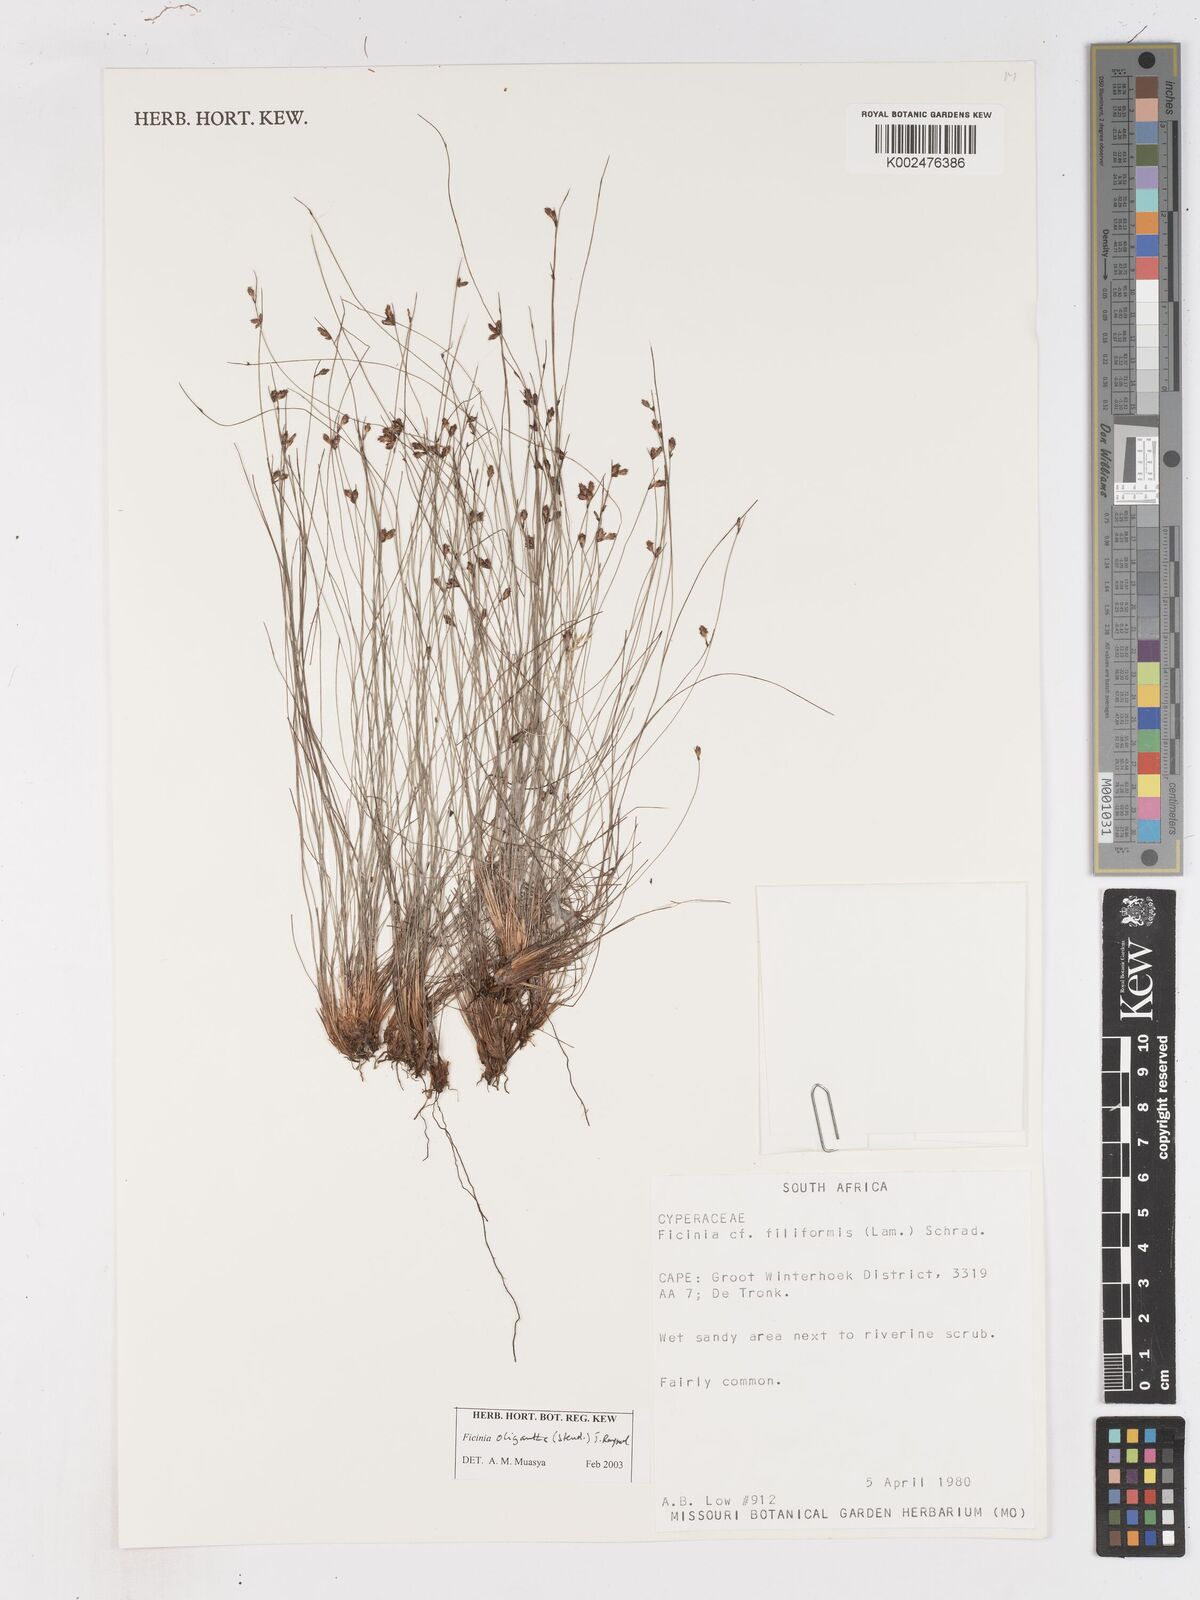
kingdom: Plantae
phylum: Tracheophyta
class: Liliopsida
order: Poales
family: Cyperaceae
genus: Ficinia
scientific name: Ficinia filiformis
